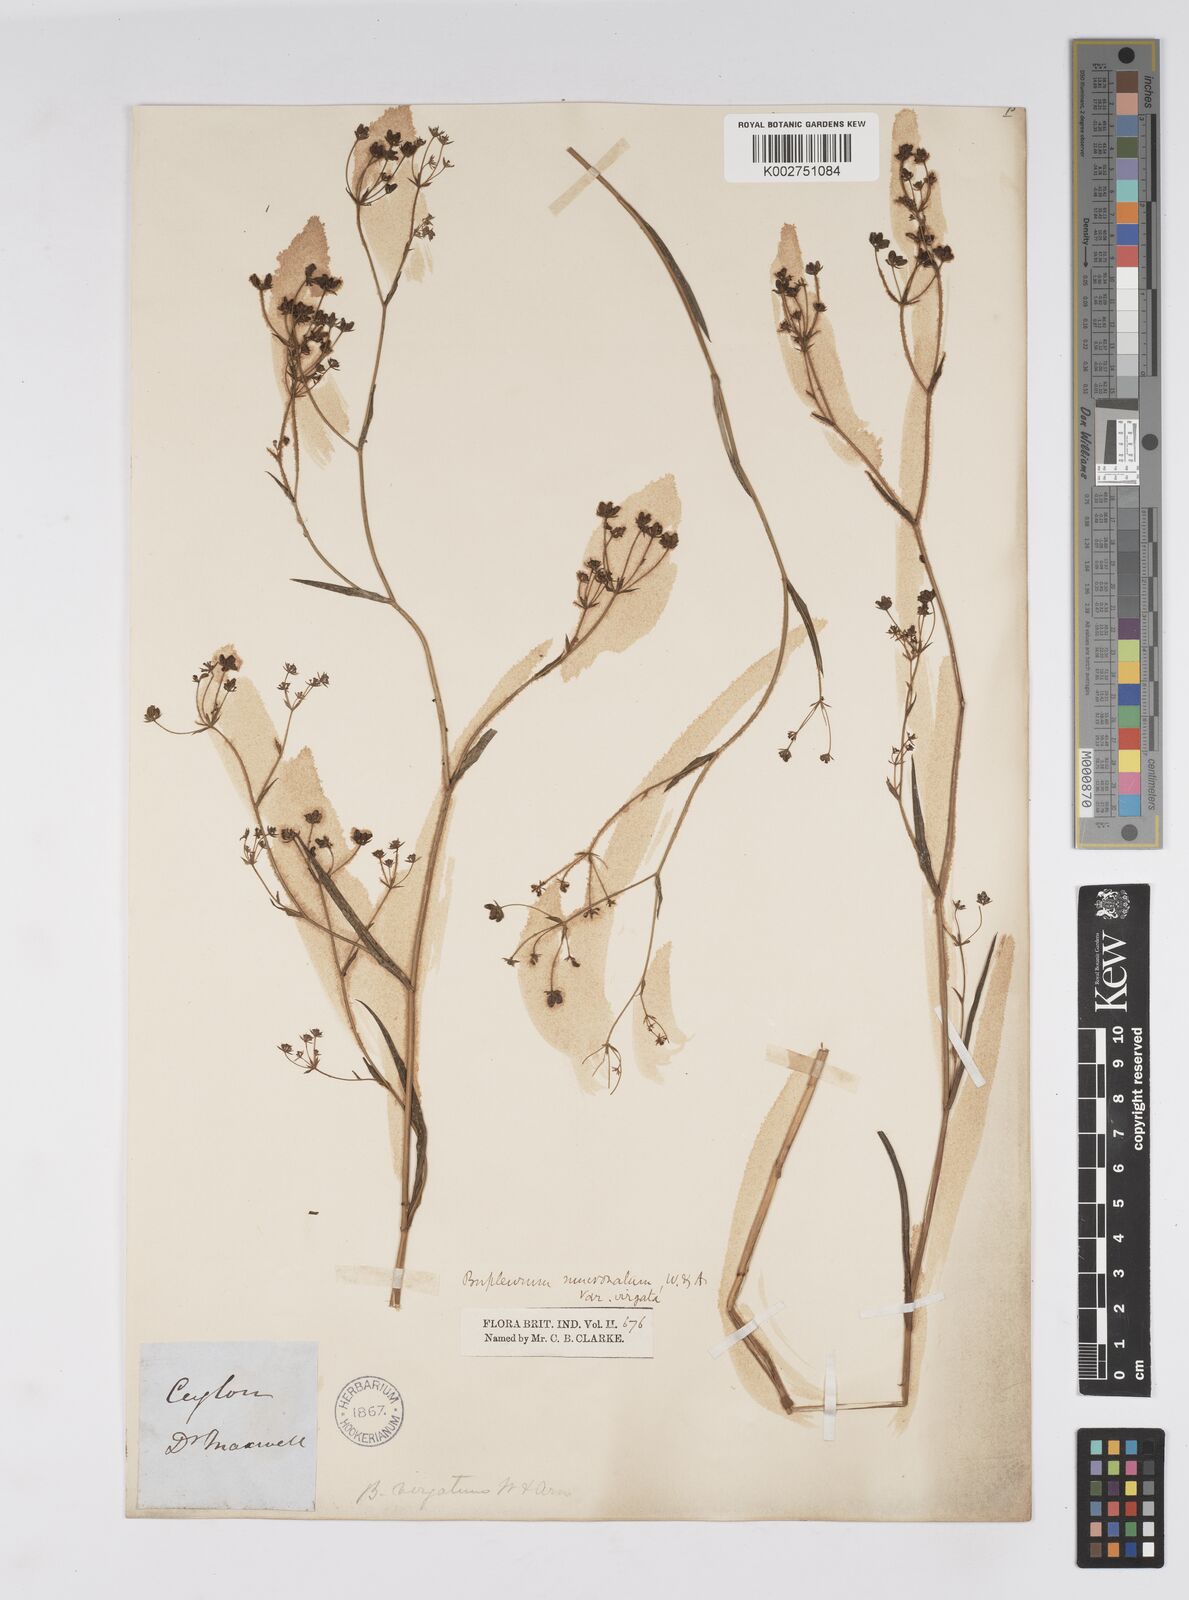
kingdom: Plantae
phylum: Tracheophyta
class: Magnoliopsida
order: Apiales
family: Apiaceae
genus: Bupleurum
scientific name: Bupleurum ramosissimum
